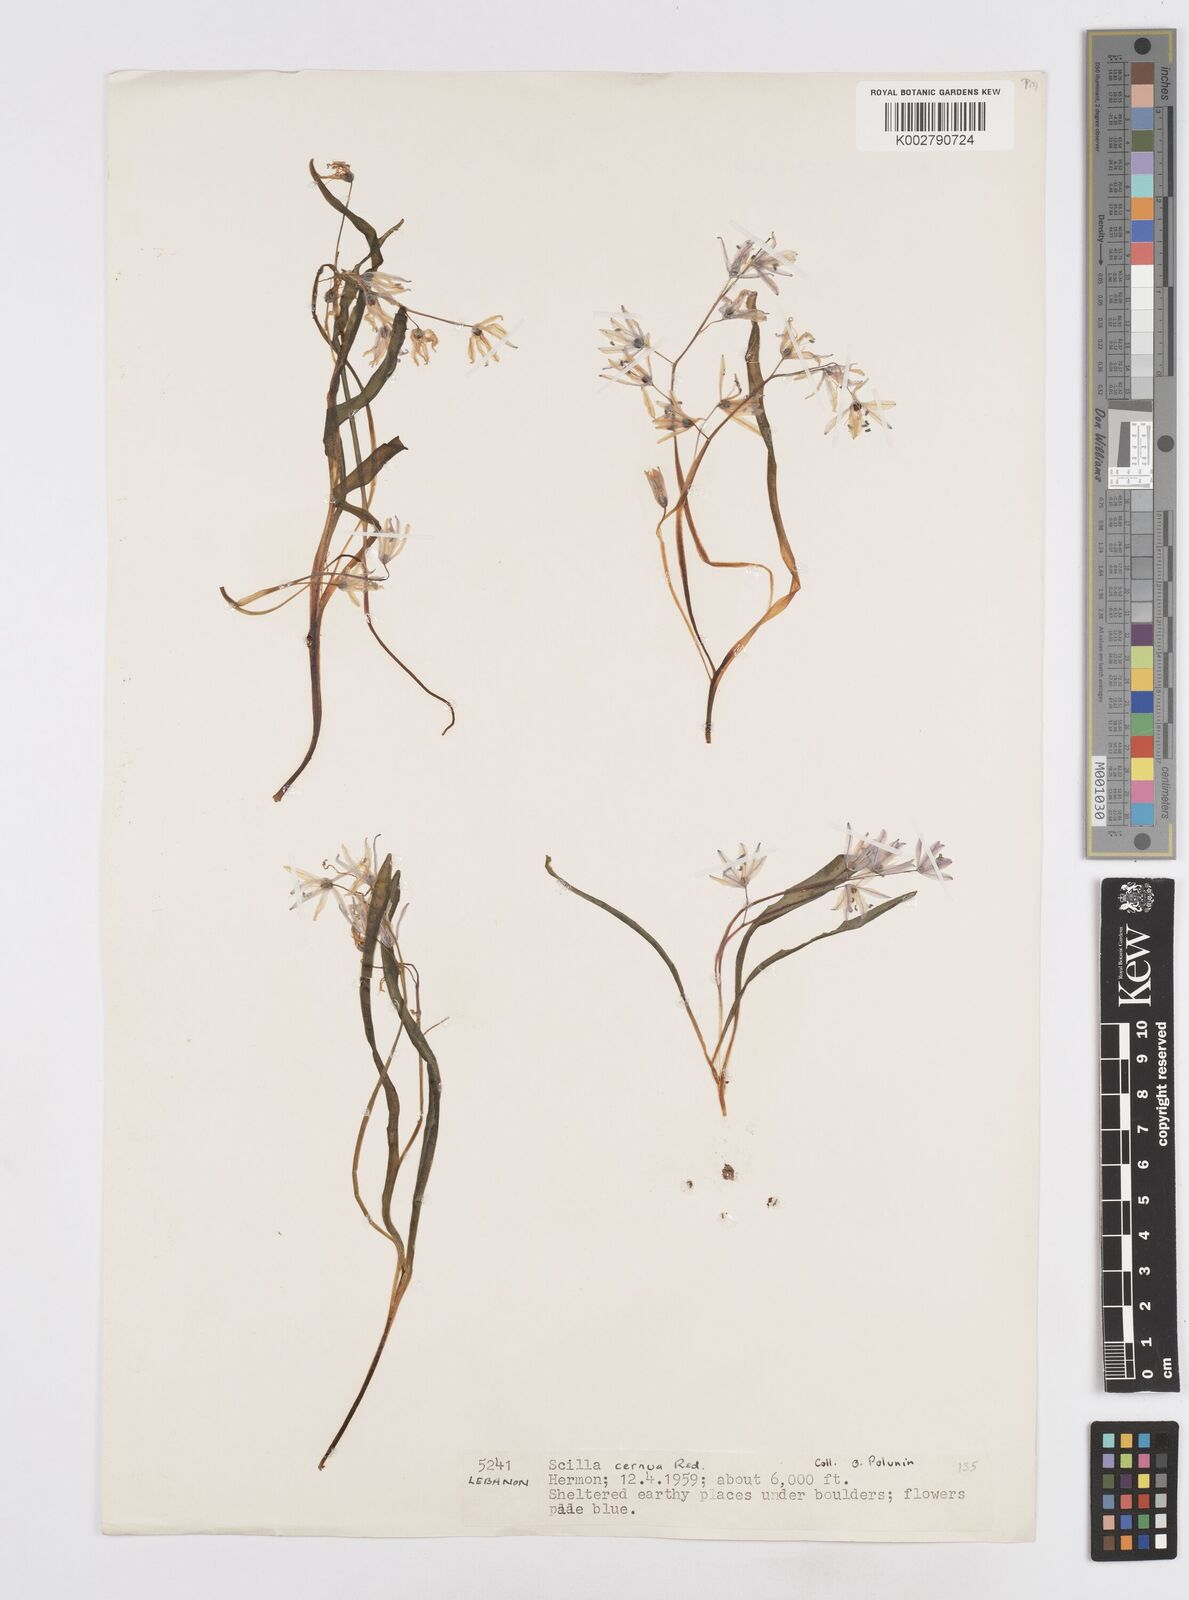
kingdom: Plantae
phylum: Tracheophyta
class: Liliopsida
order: Asparagales
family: Asparagaceae
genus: Scilla
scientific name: Scilla siberica
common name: Siberian squill
